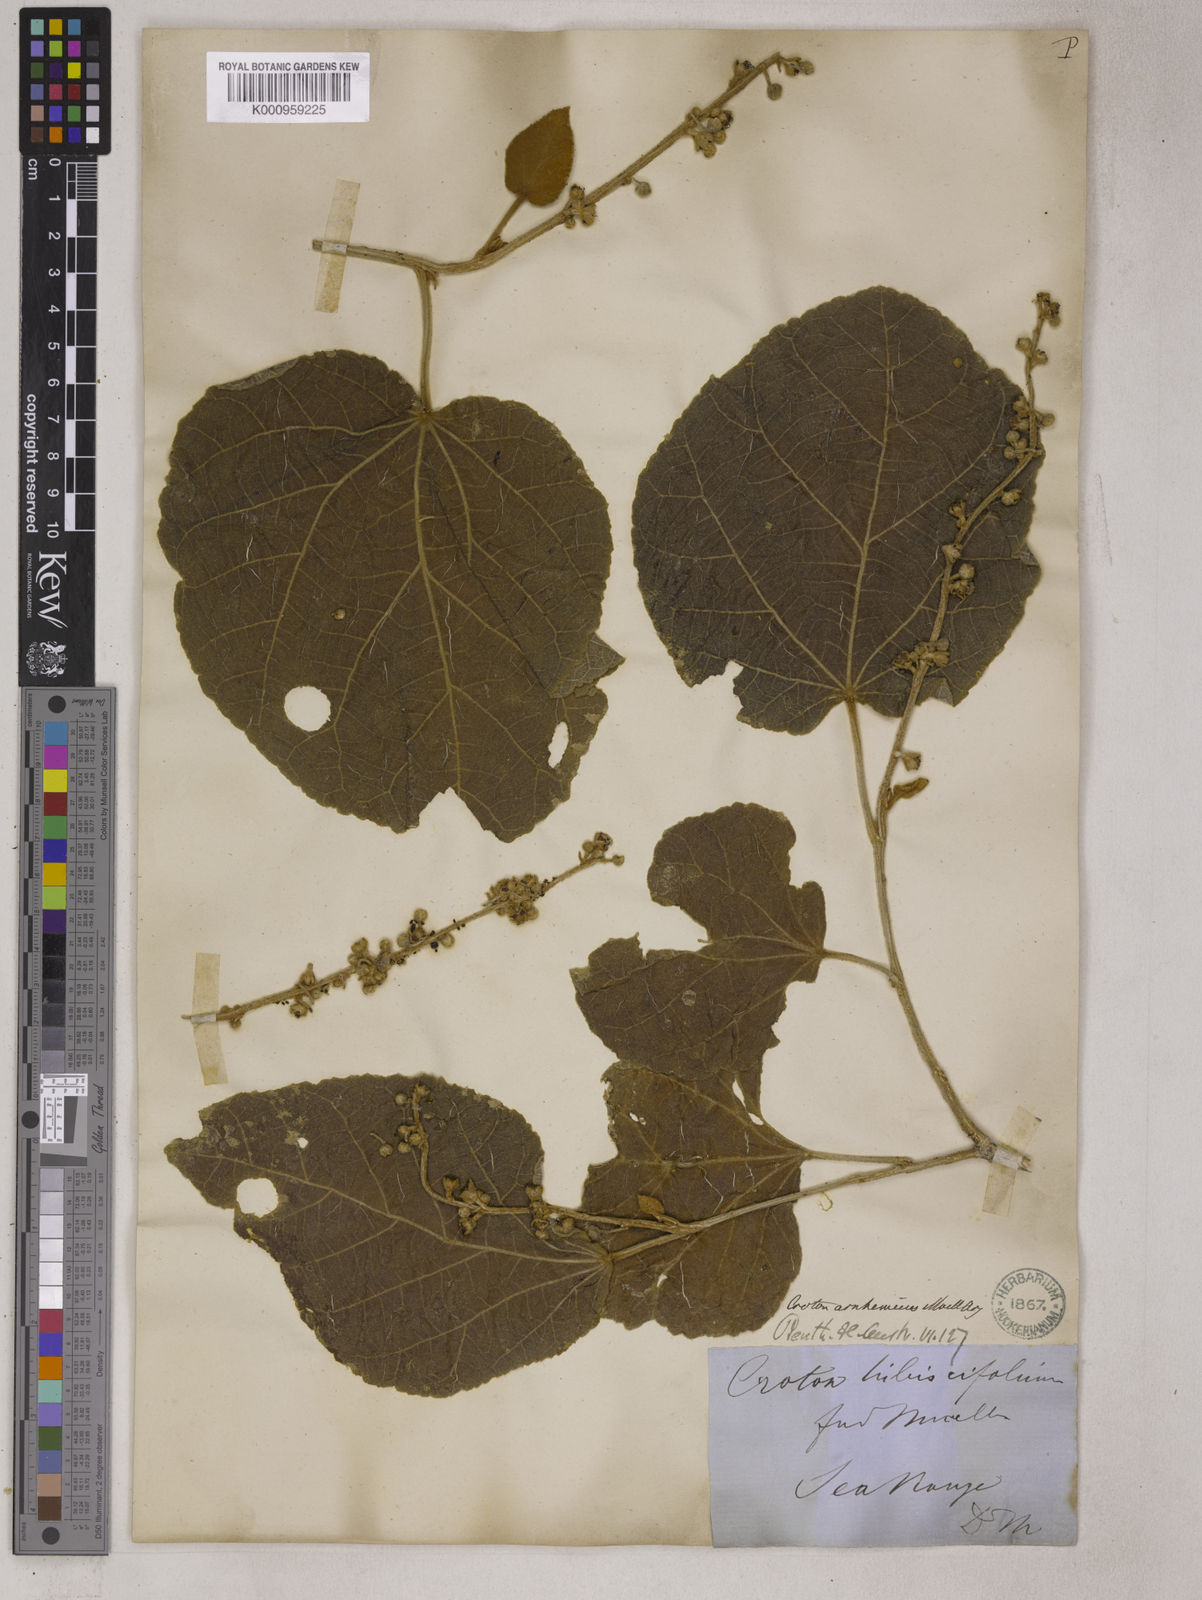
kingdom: Plantae
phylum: Tracheophyta
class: Magnoliopsida
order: Malpighiales
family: Euphorbiaceae
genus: Croton
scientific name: Croton
